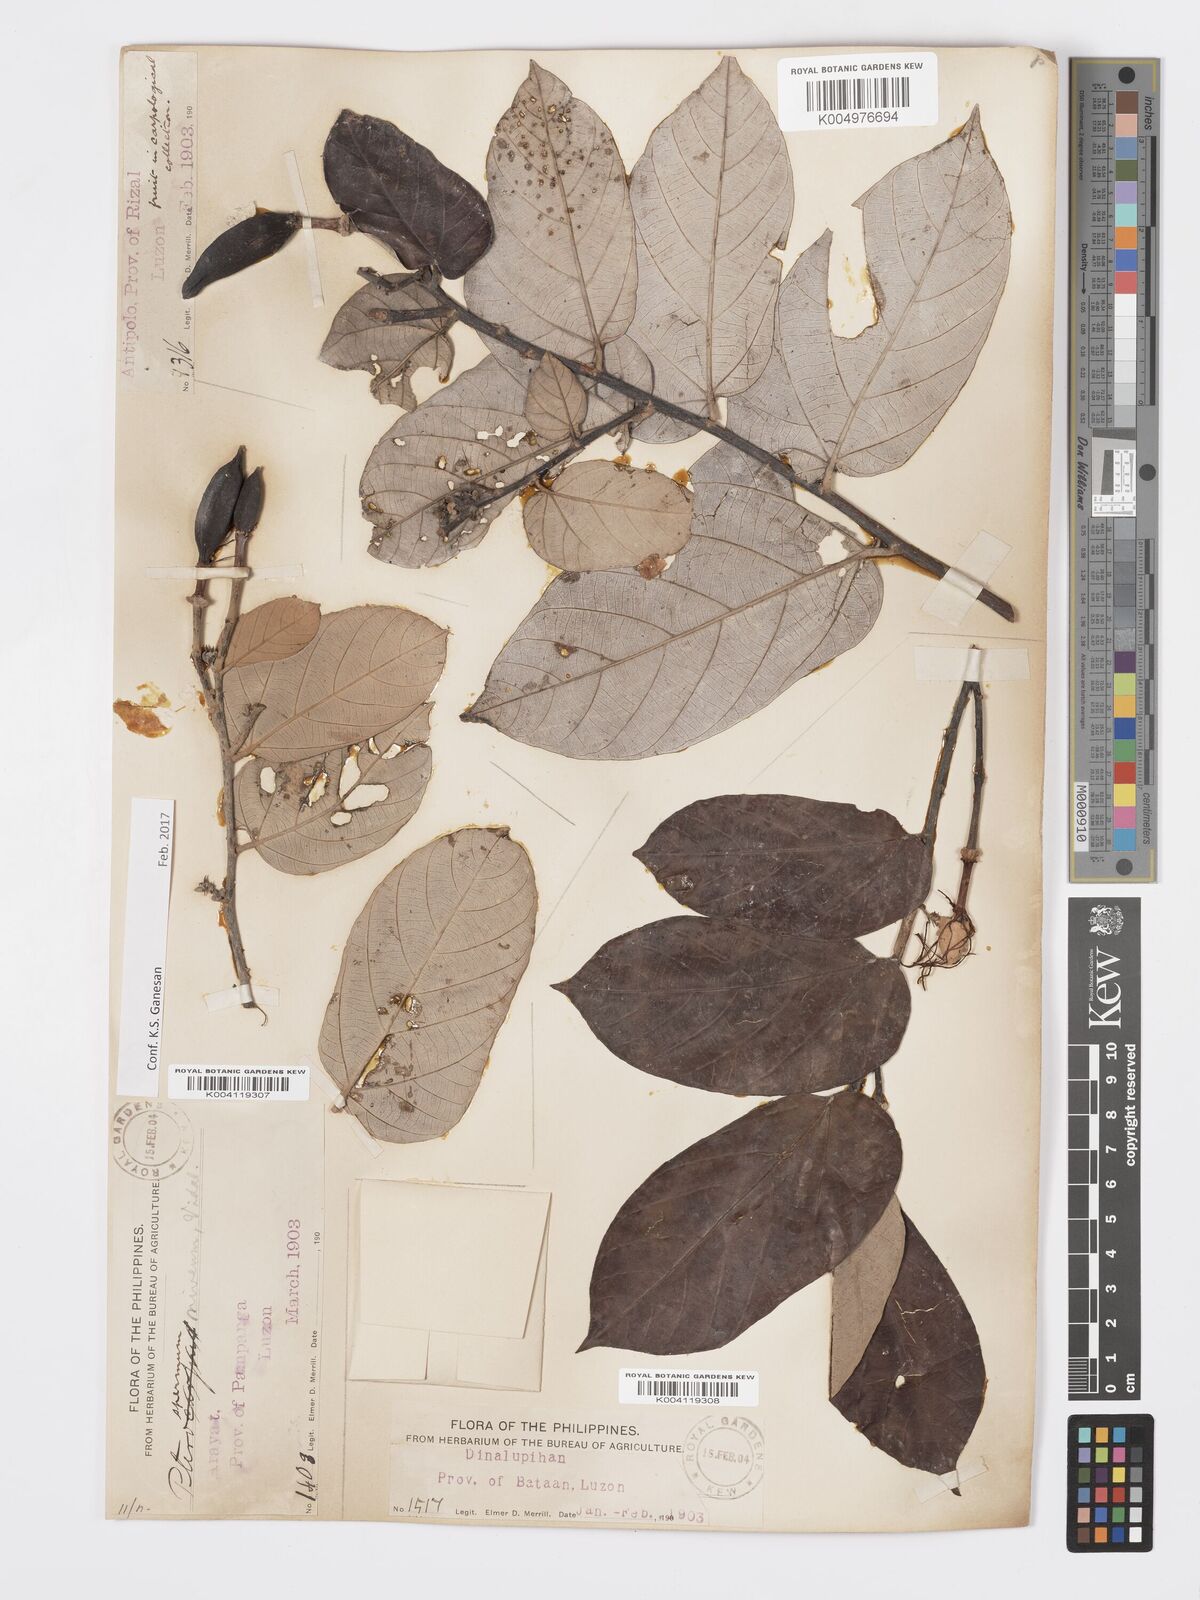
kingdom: Plantae
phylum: Tracheophyta
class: Magnoliopsida
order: Malvales
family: Malvaceae
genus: Pterospermum
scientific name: Pterospermum niveum
